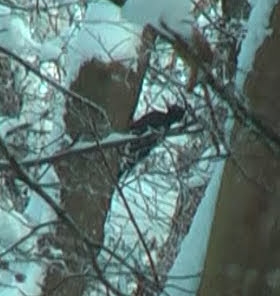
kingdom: Animalia
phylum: Chordata
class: Aves
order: Piciformes
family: Picidae
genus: Dryocopus
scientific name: Dryocopus martius
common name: Sortspætte
